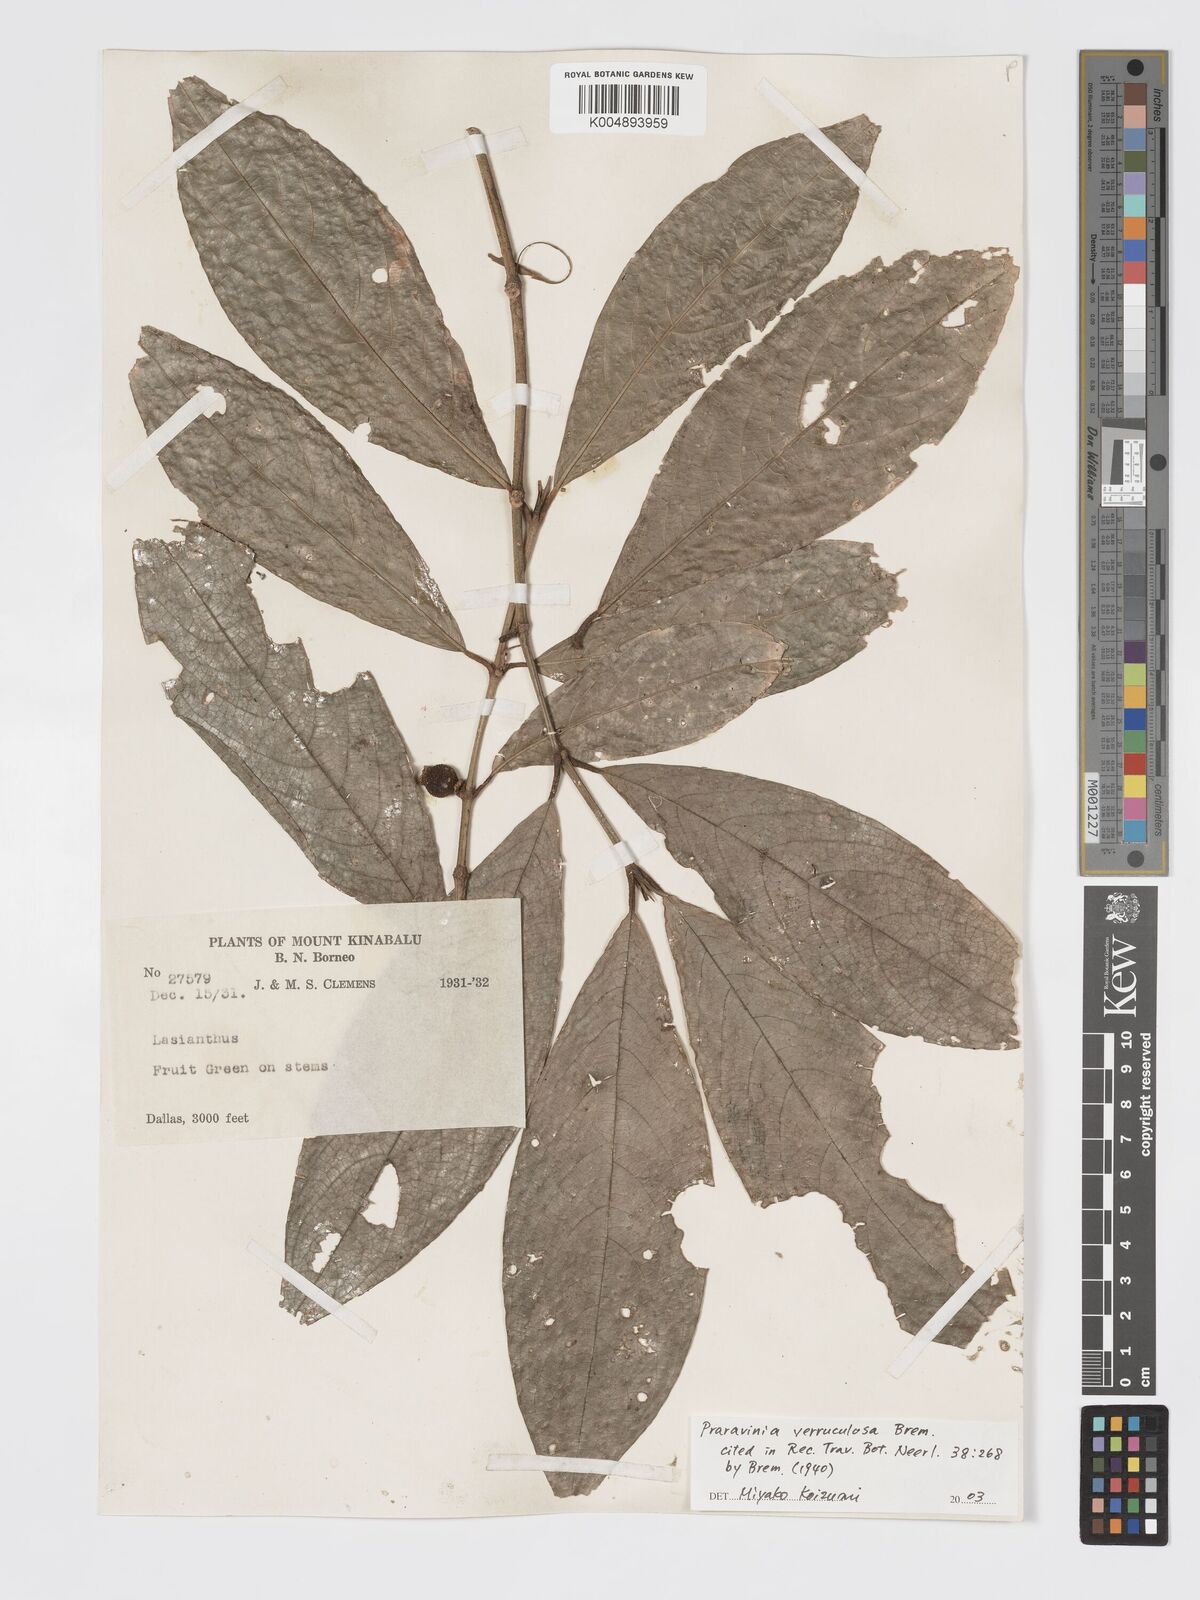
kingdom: Plantae
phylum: Tracheophyta
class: Magnoliopsida
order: Gentianales
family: Rubiaceae
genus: Praravinia
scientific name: Praravinia verruculosa
